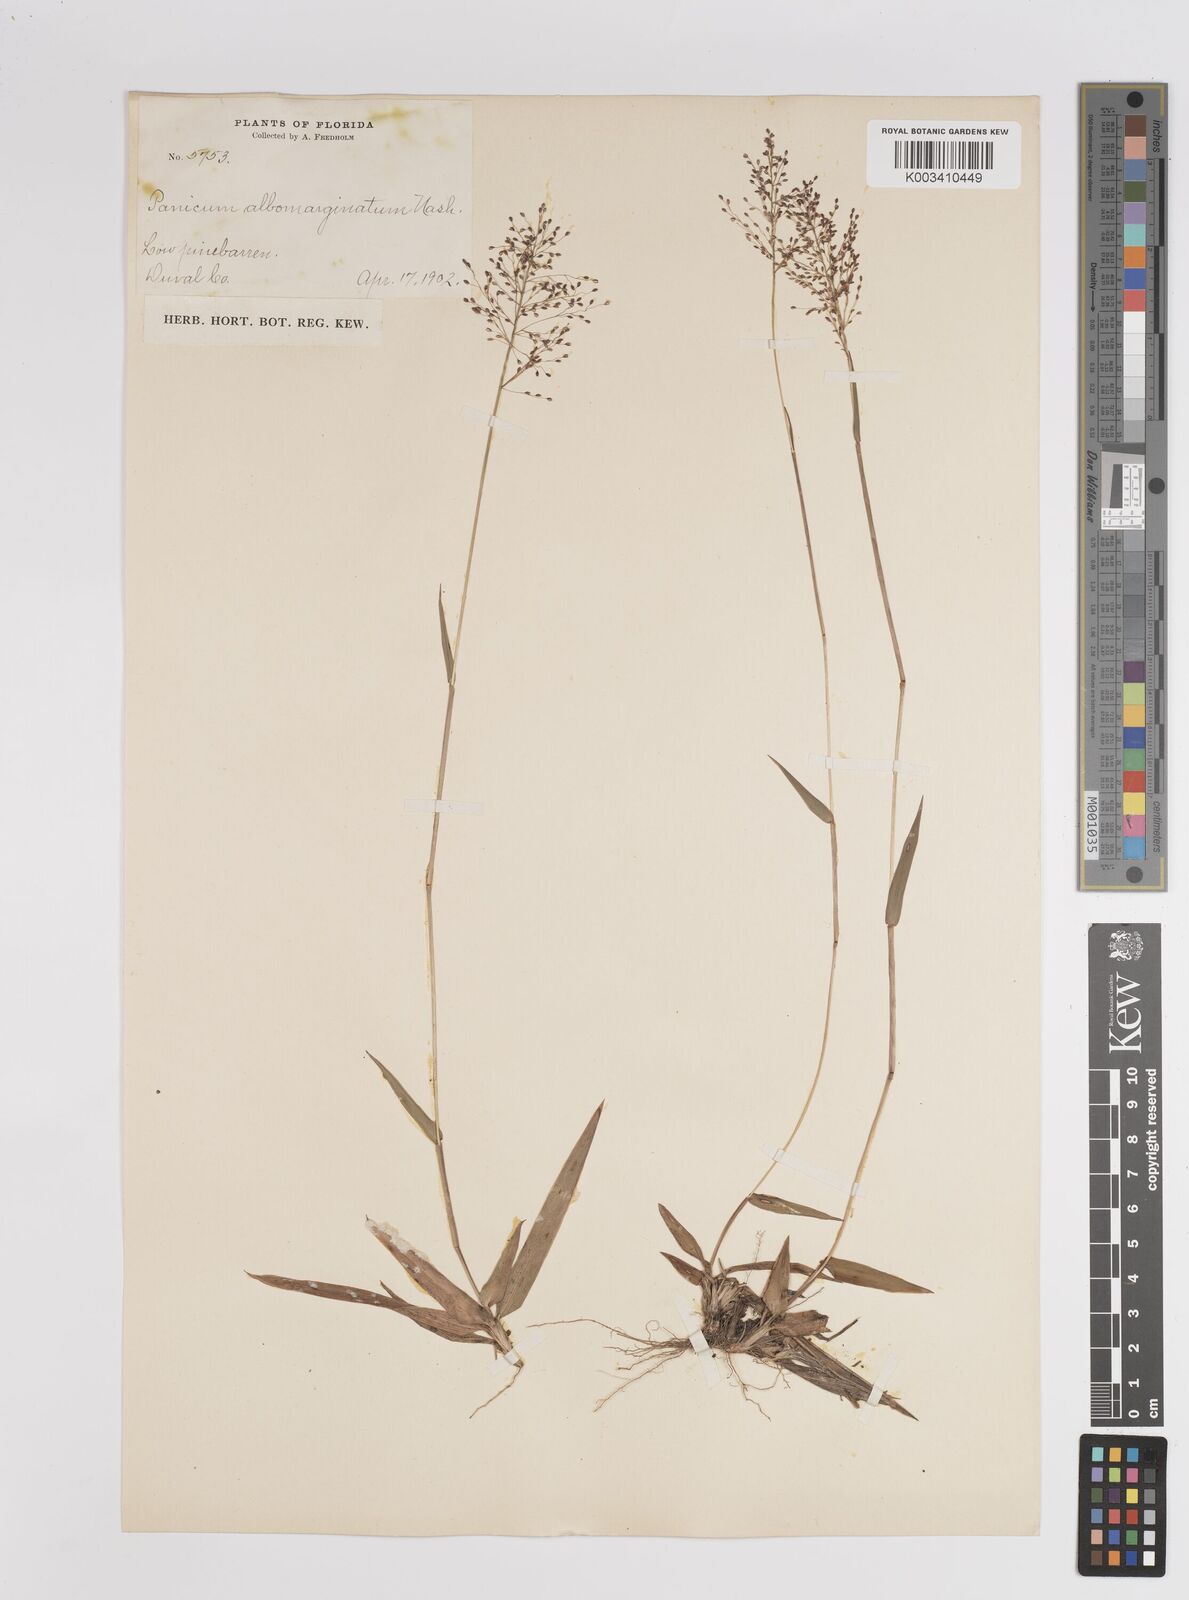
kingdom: Plantae
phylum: Tracheophyta
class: Liliopsida
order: Poales
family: Poaceae
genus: Dichanthelium
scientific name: Dichanthelium ensifolium
